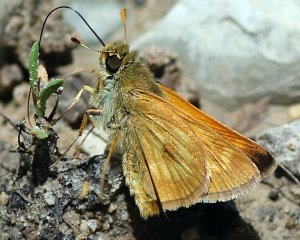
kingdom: Animalia
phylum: Arthropoda
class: Insecta
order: Lepidoptera
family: Hesperiidae
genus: Polites
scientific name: Polites
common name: Long Dash Skipper
